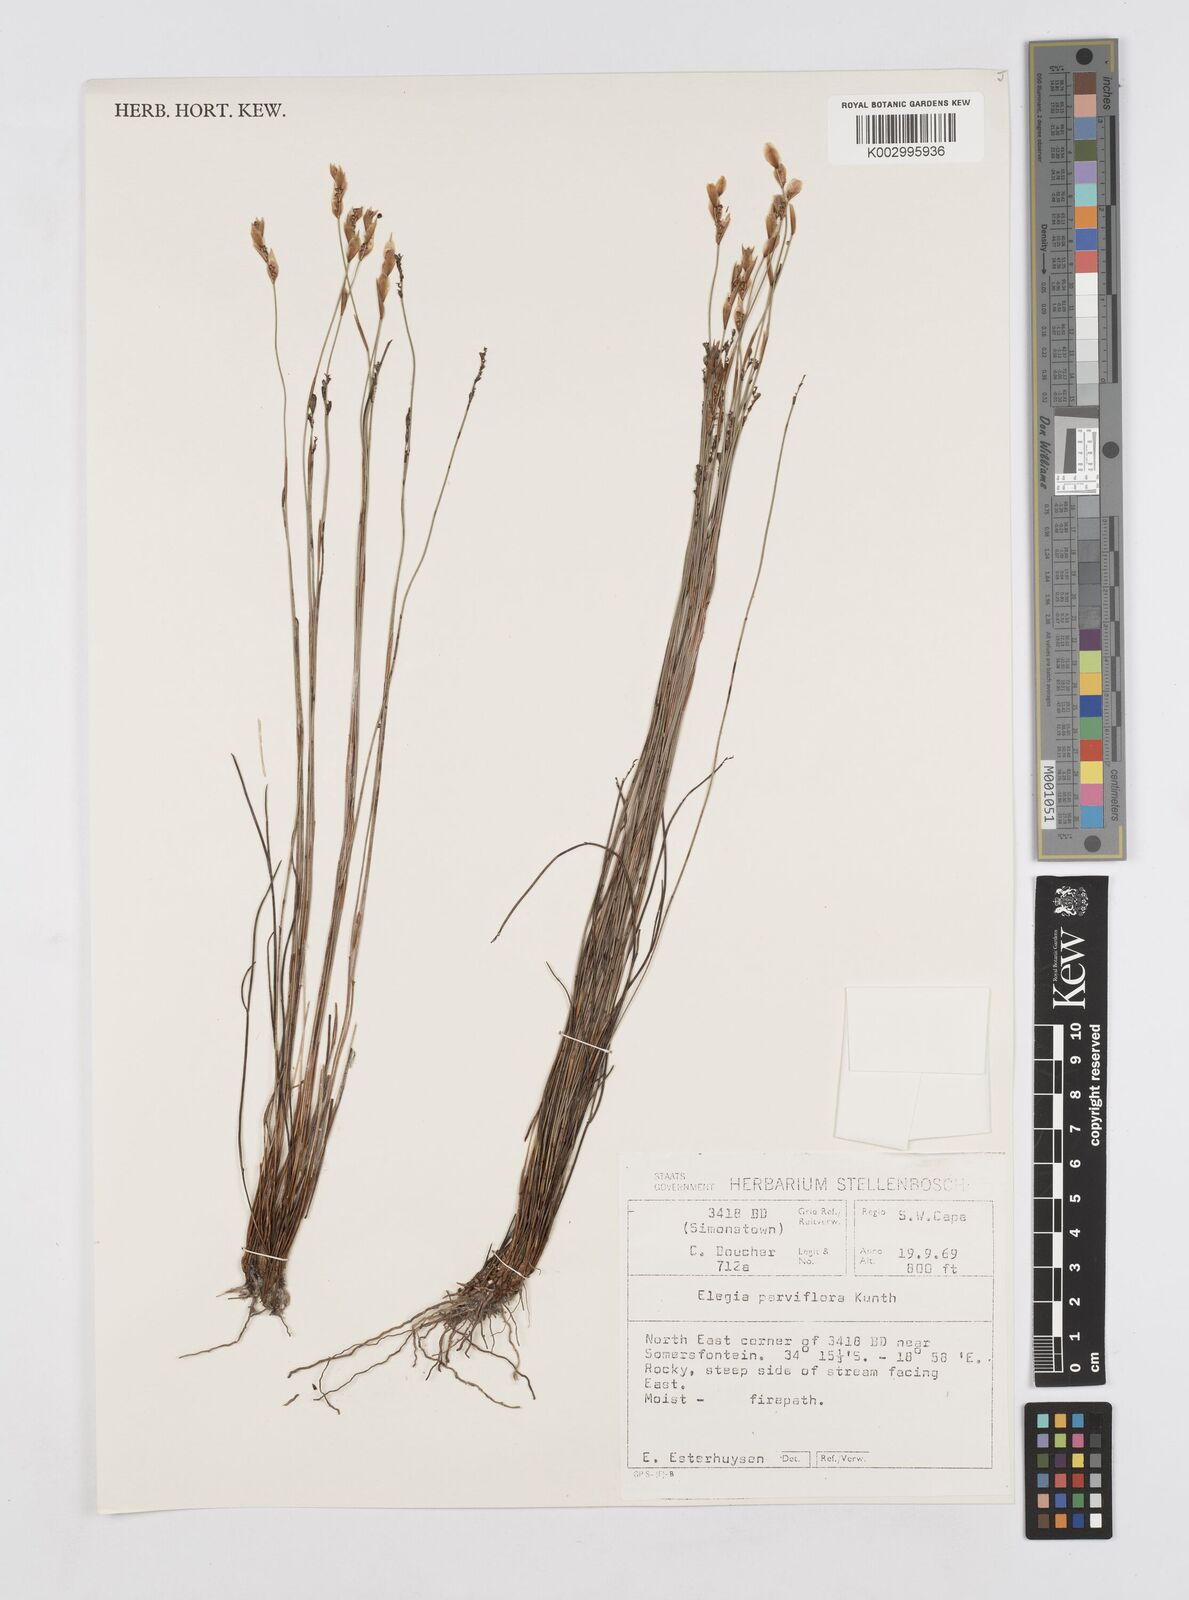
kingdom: Plantae
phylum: Tracheophyta
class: Liliopsida
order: Poales
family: Restionaceae
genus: Cannomois
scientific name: Cannomois parviflora
